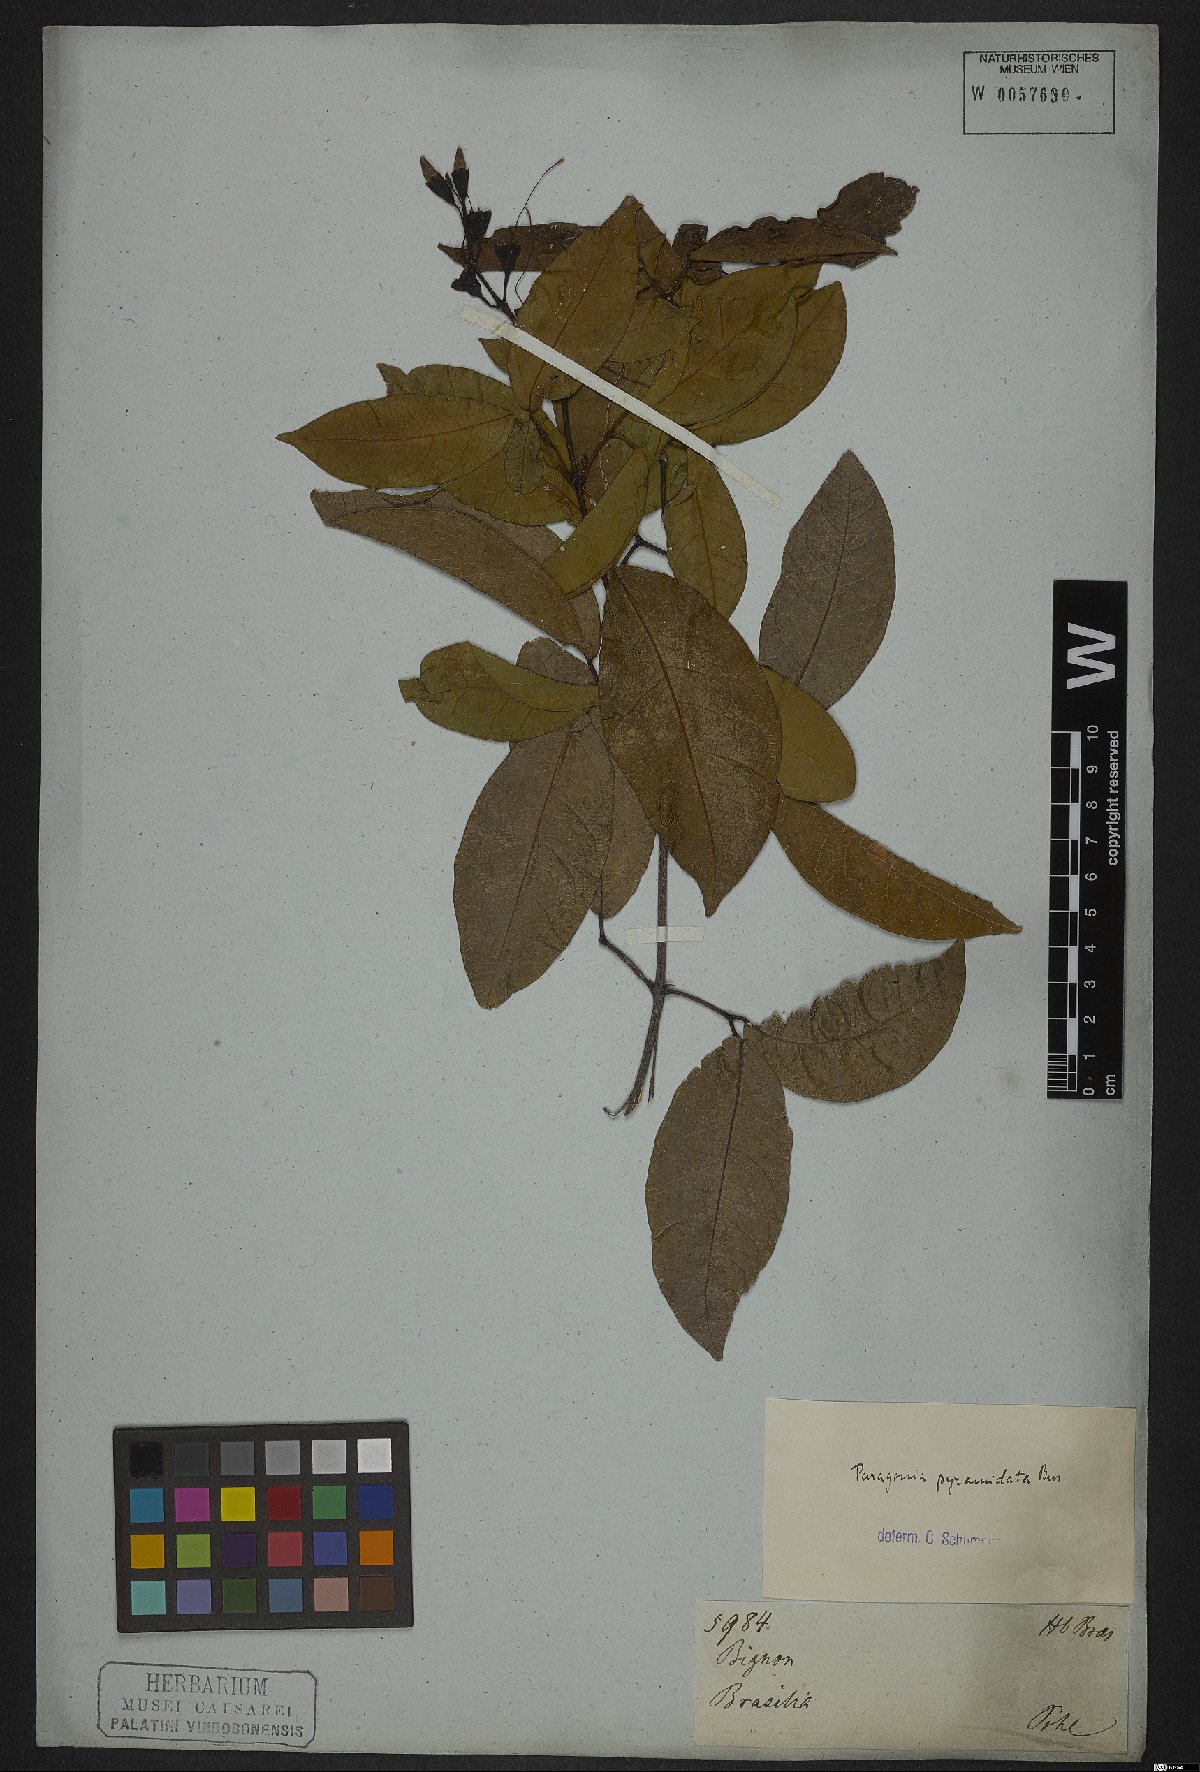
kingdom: Plantae
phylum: Tracheophyta
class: Magnoliopsida
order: Lamiales
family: Bignoniaceae
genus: Tanaecium
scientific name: Tanaecium pyramidatum
